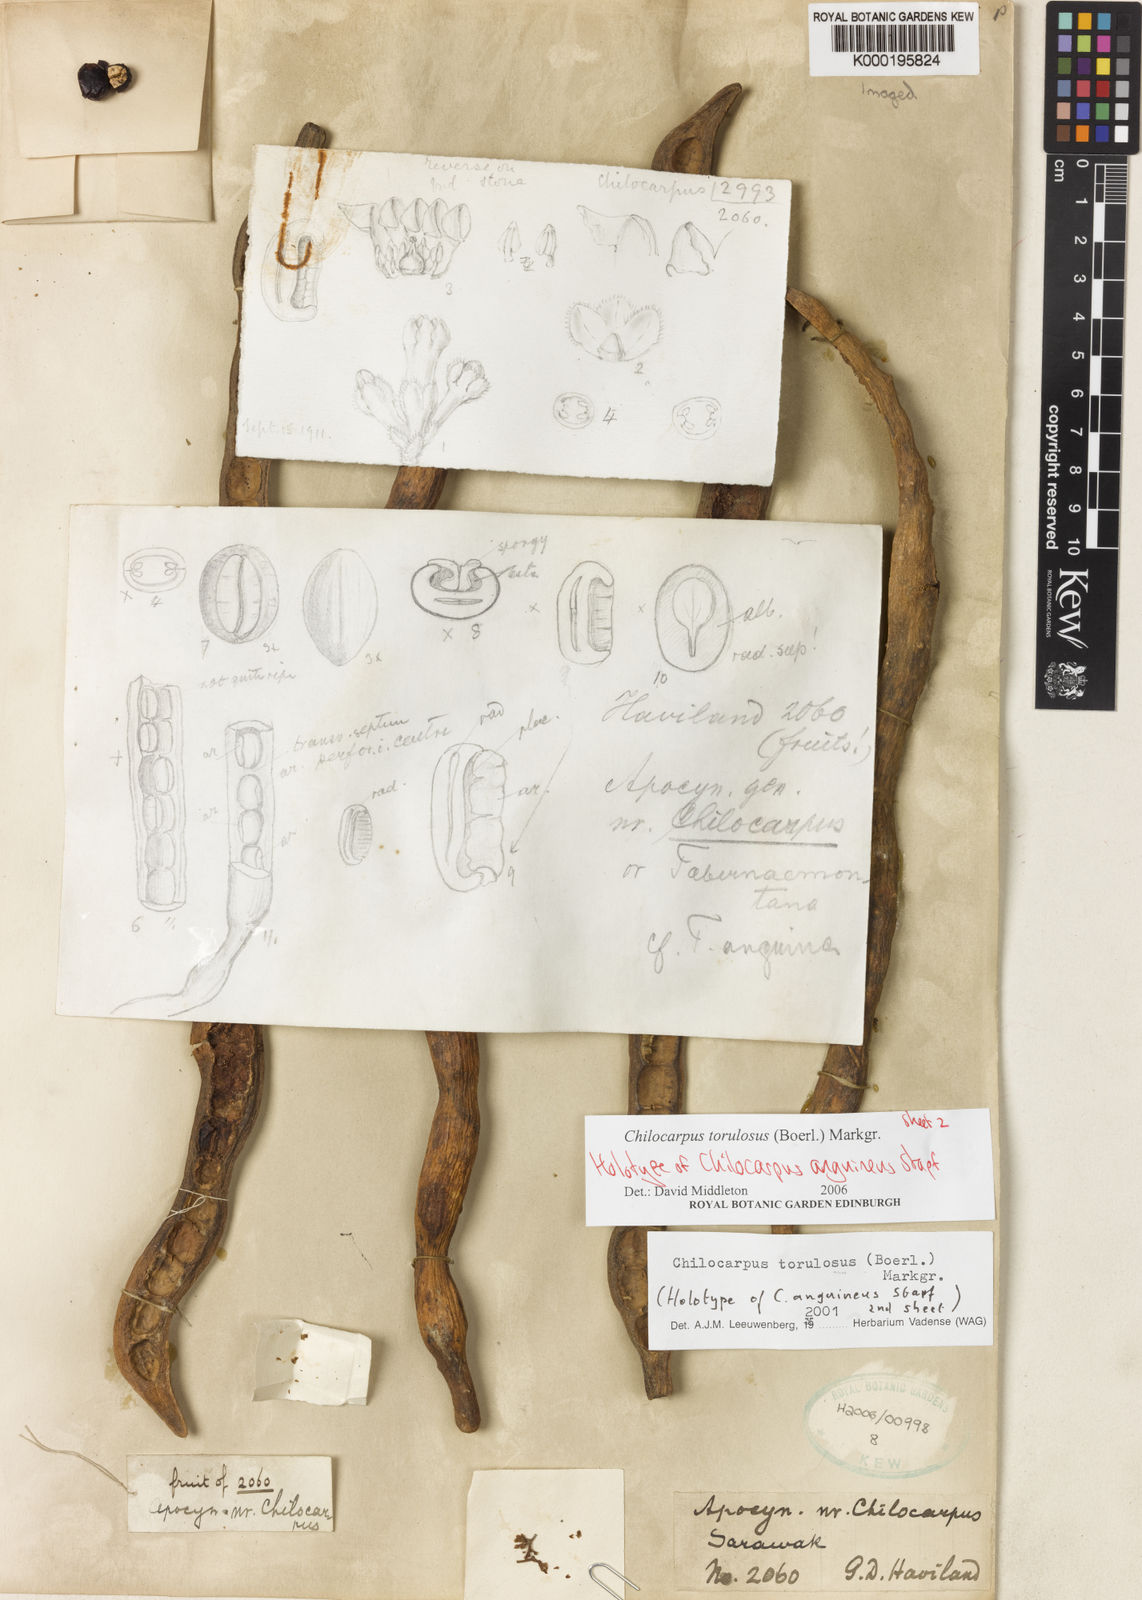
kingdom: Plantae
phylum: Tracheophyta
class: Magnoliopsida
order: Gentianales
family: Apocynaceae
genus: Chilocarpus
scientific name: Chilocarpus torulosus
